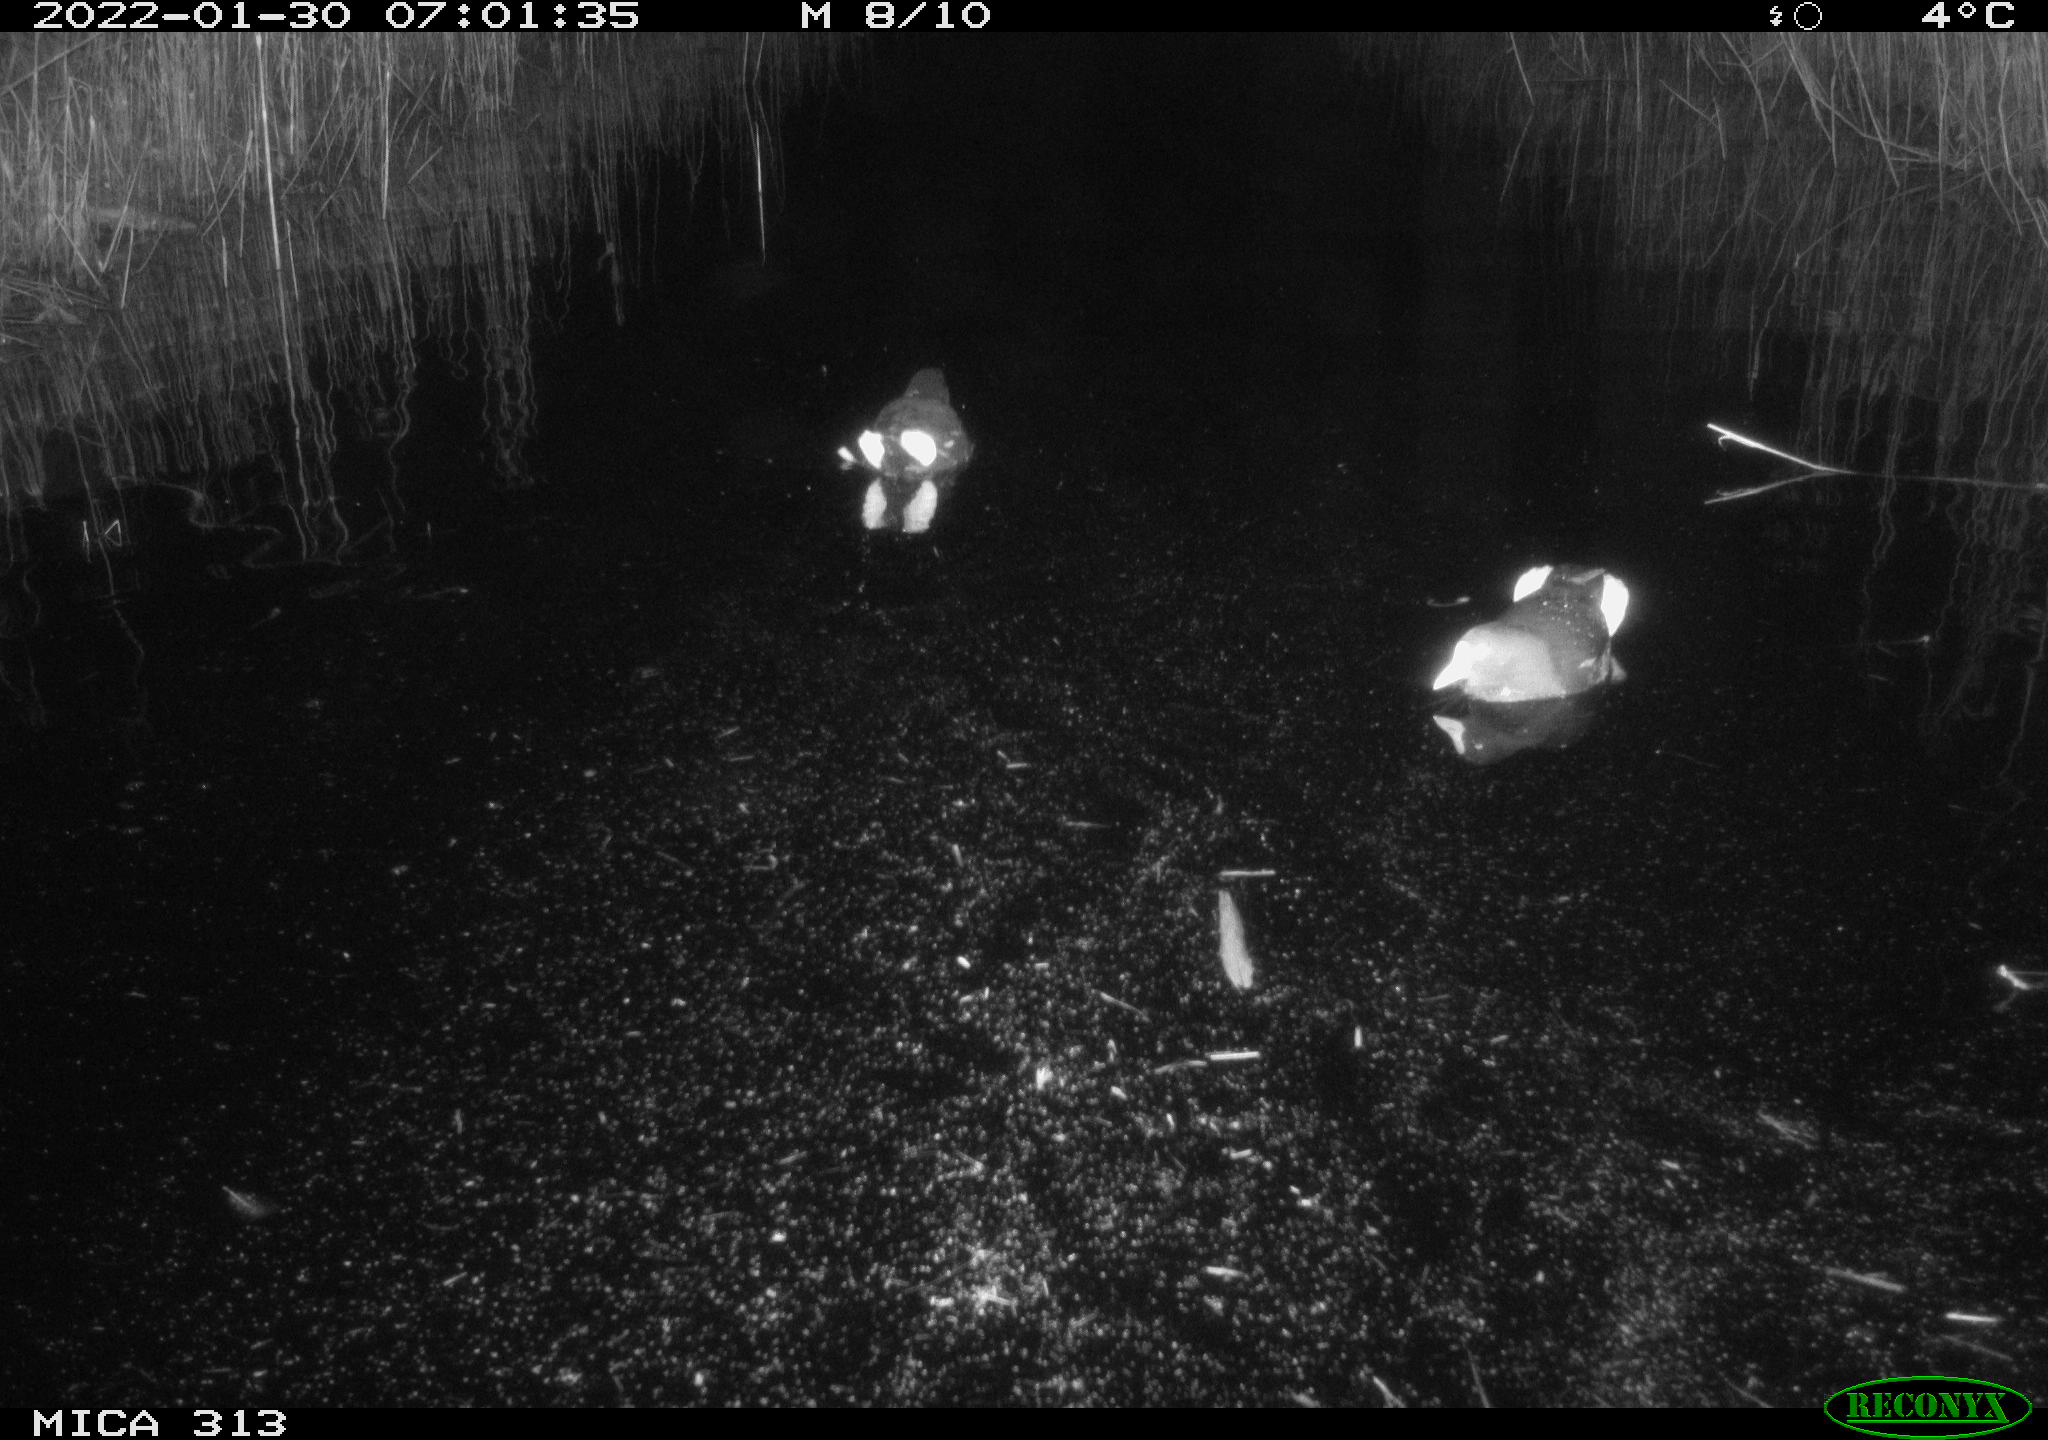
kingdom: Animalia
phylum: Chordata
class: Aves
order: Gruiformes
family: Rallidae
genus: Gallinula
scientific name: Gallinula chloropus
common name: Common moorhen
